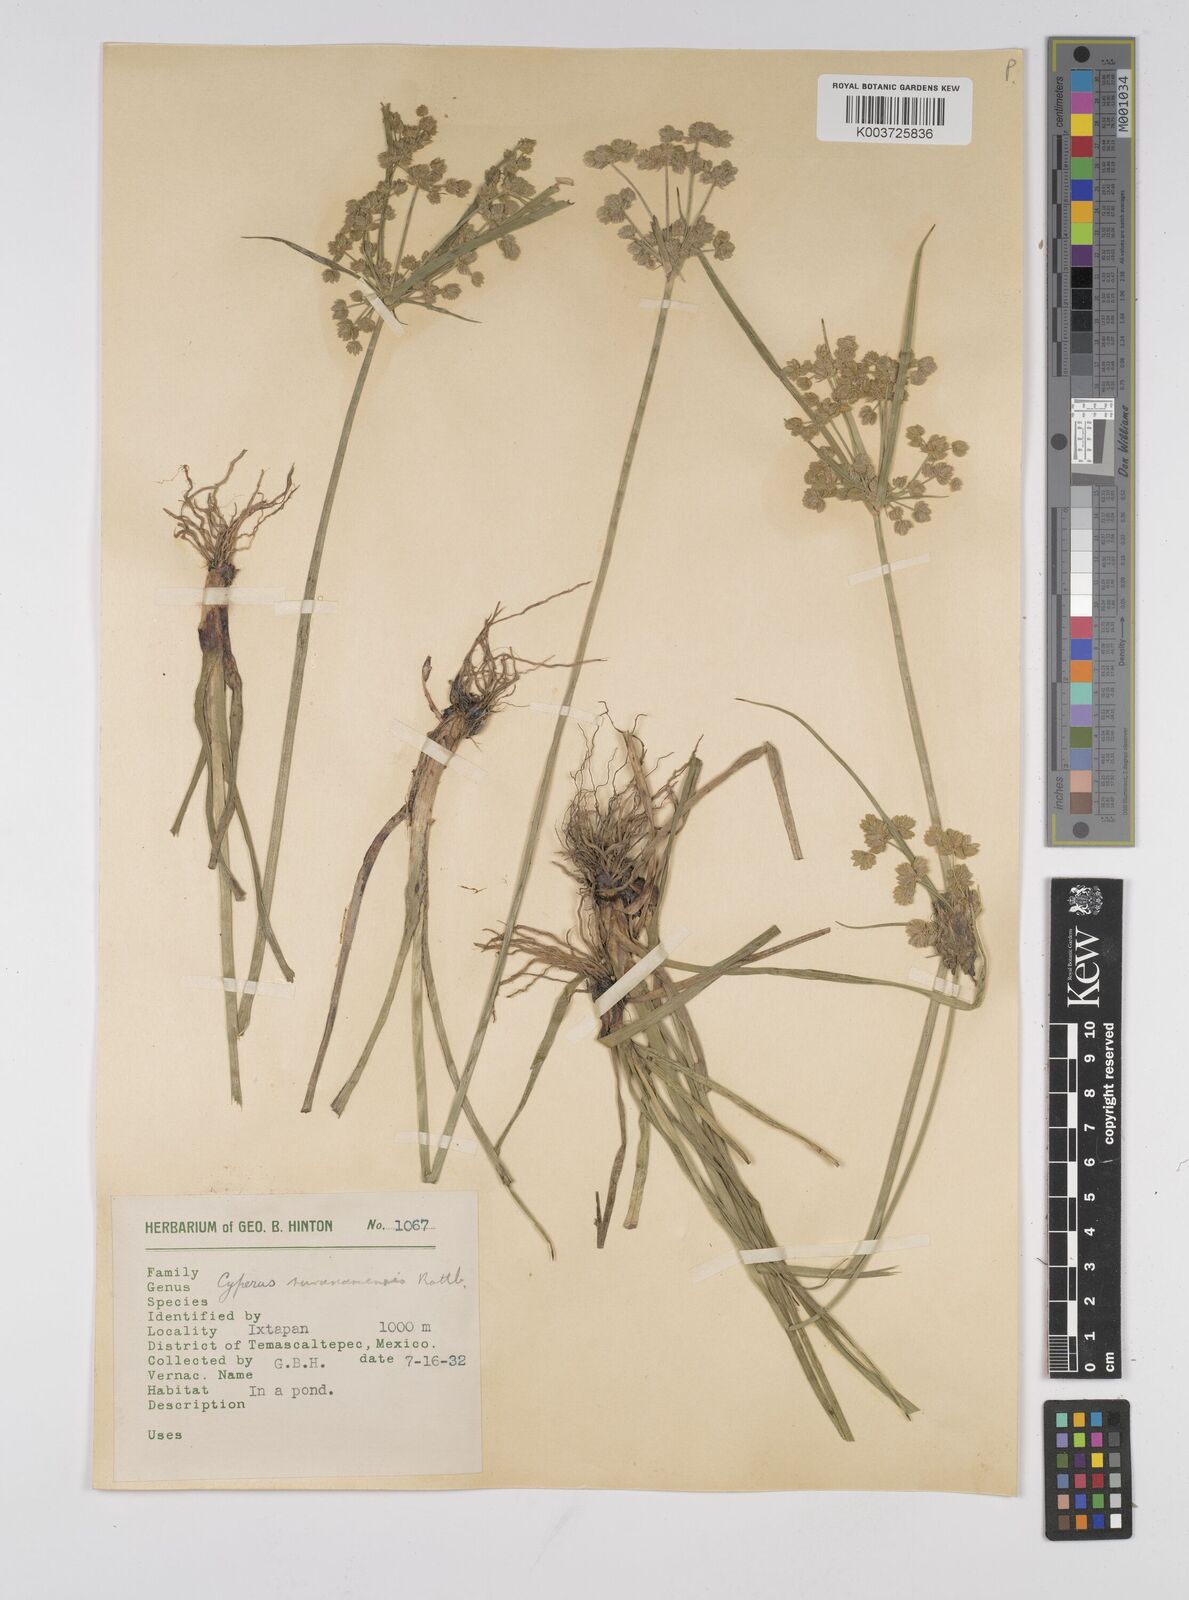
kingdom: Plantae
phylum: Tracheophyta
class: Liliopsida
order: Poales
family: Cyperaceae
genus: Cyperus
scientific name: Cyperus surinamensis
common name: Tropical flat sedge
